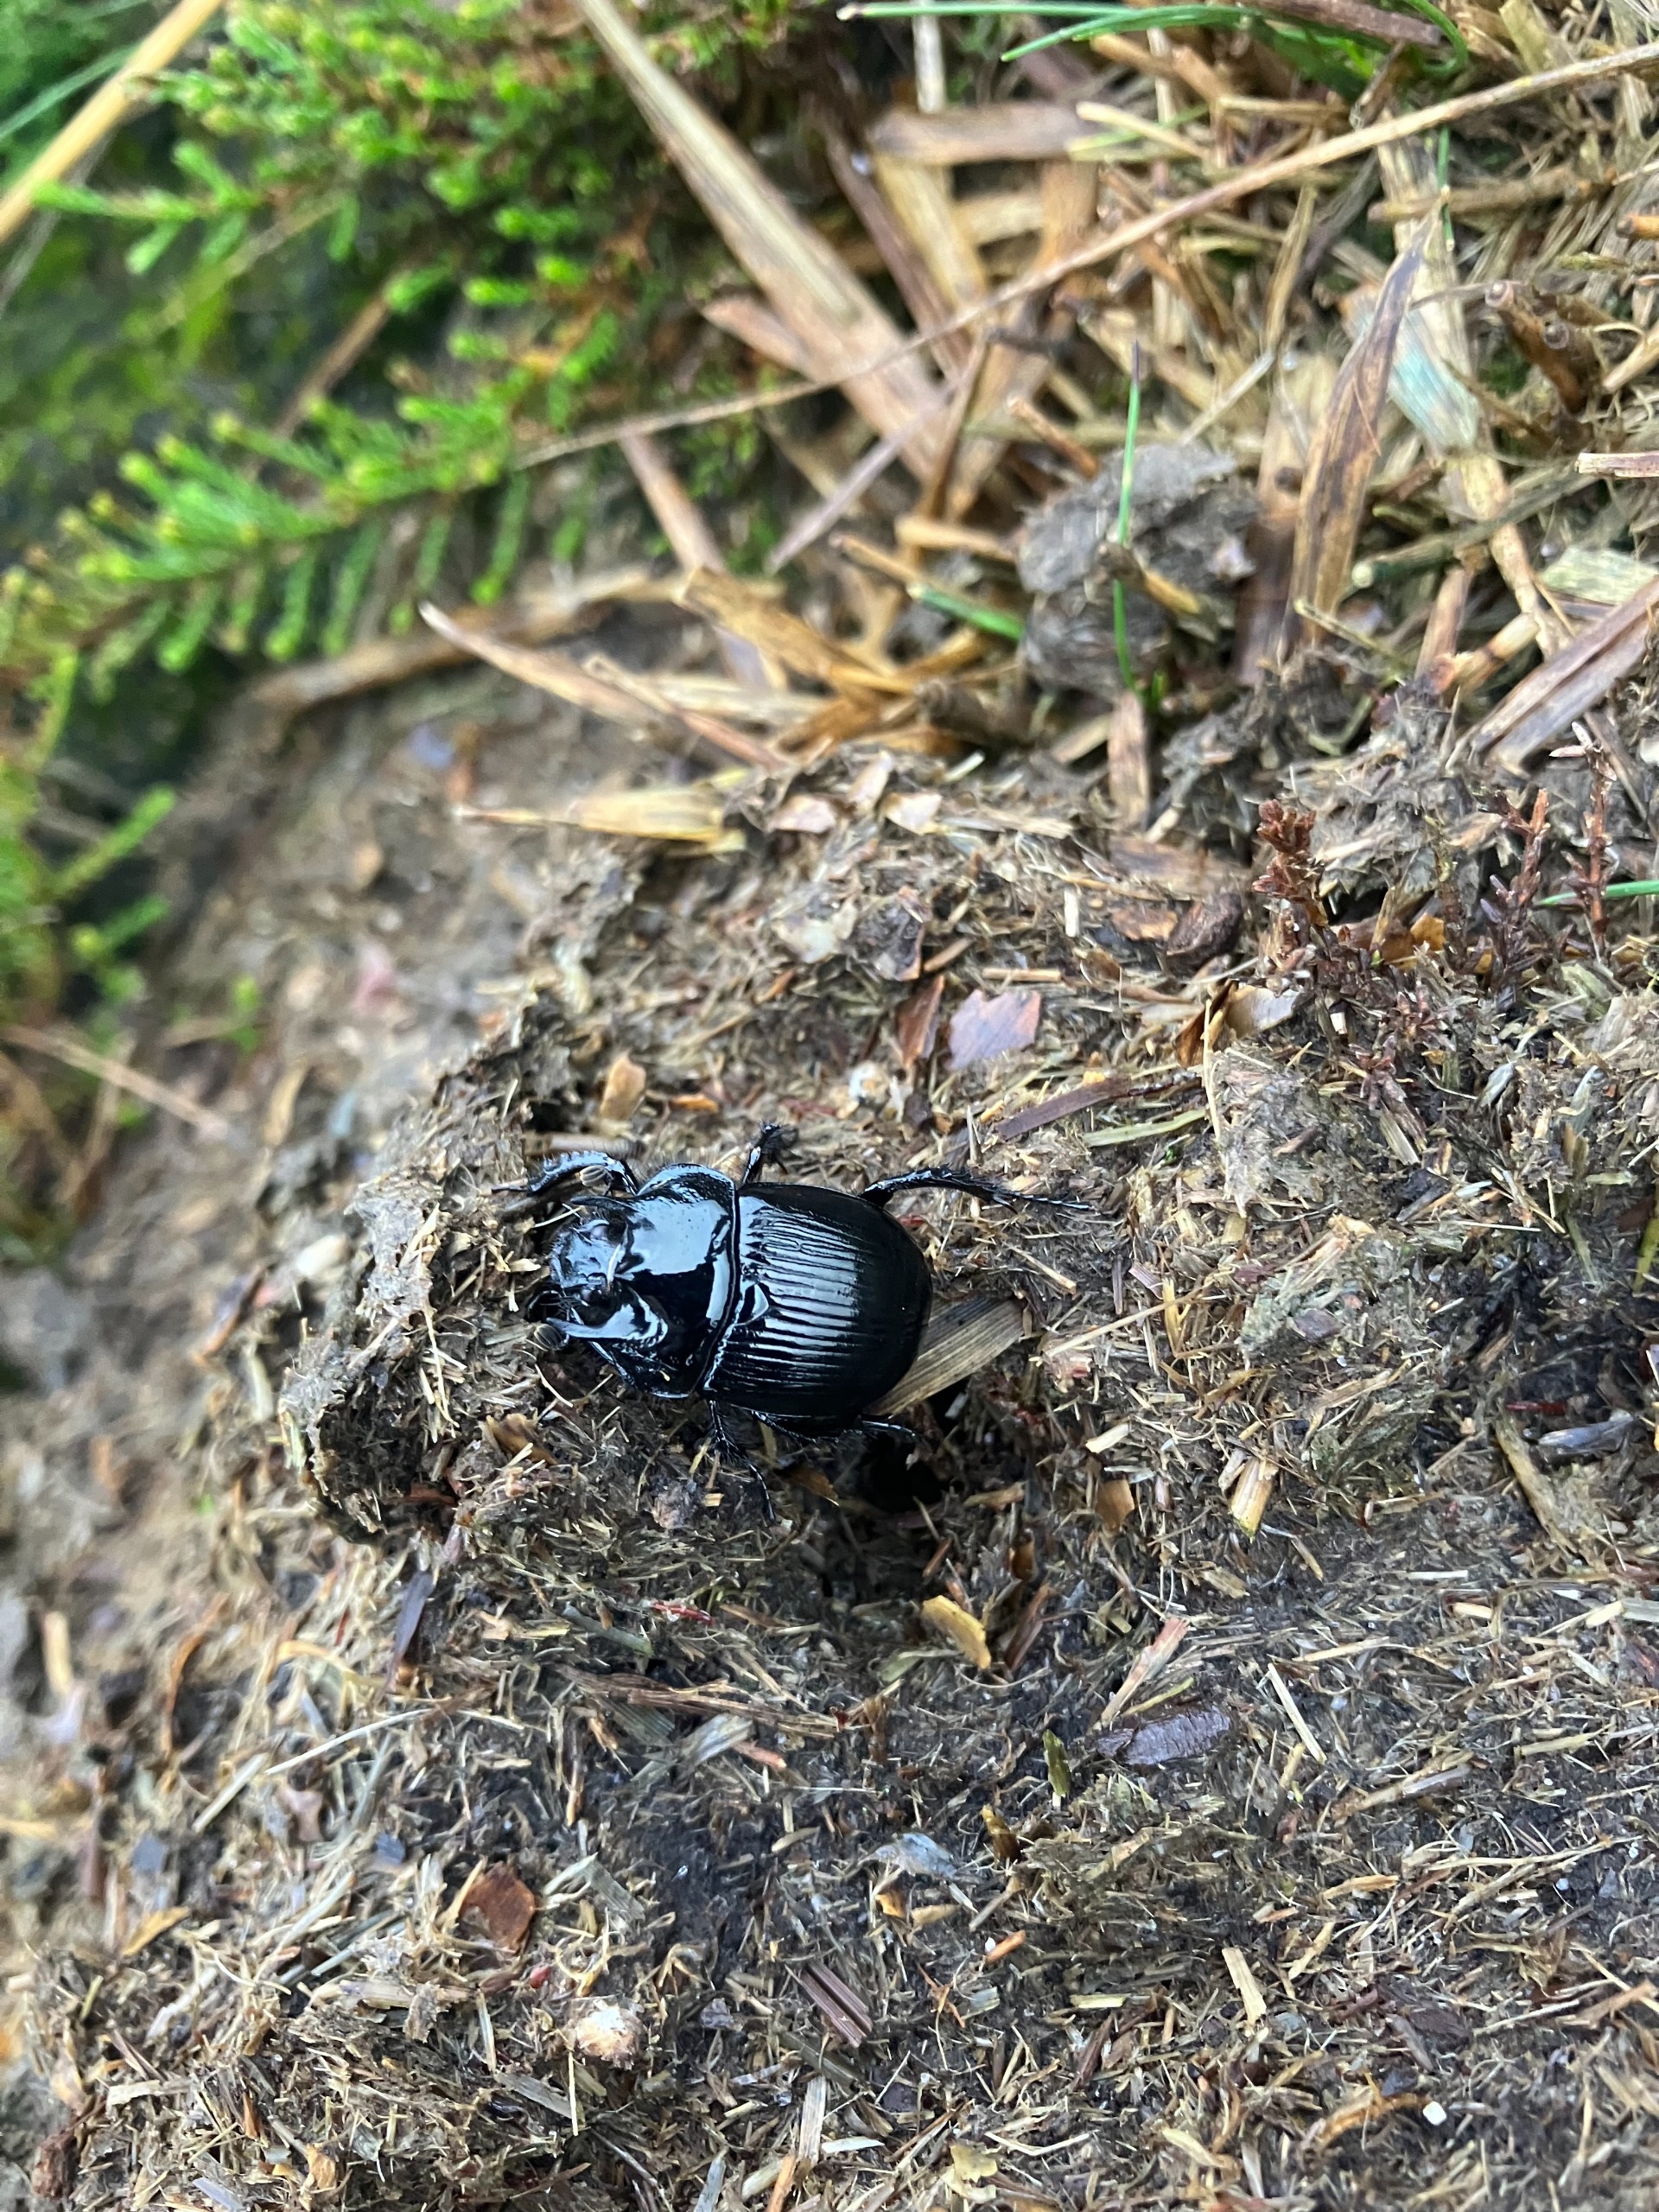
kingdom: Animalia
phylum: Arthropoda
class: Insecta
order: Coleoptera
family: Geotrupidae
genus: Typhaeus
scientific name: Typhaeus typhoeus
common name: Trehornet skarnbasse
